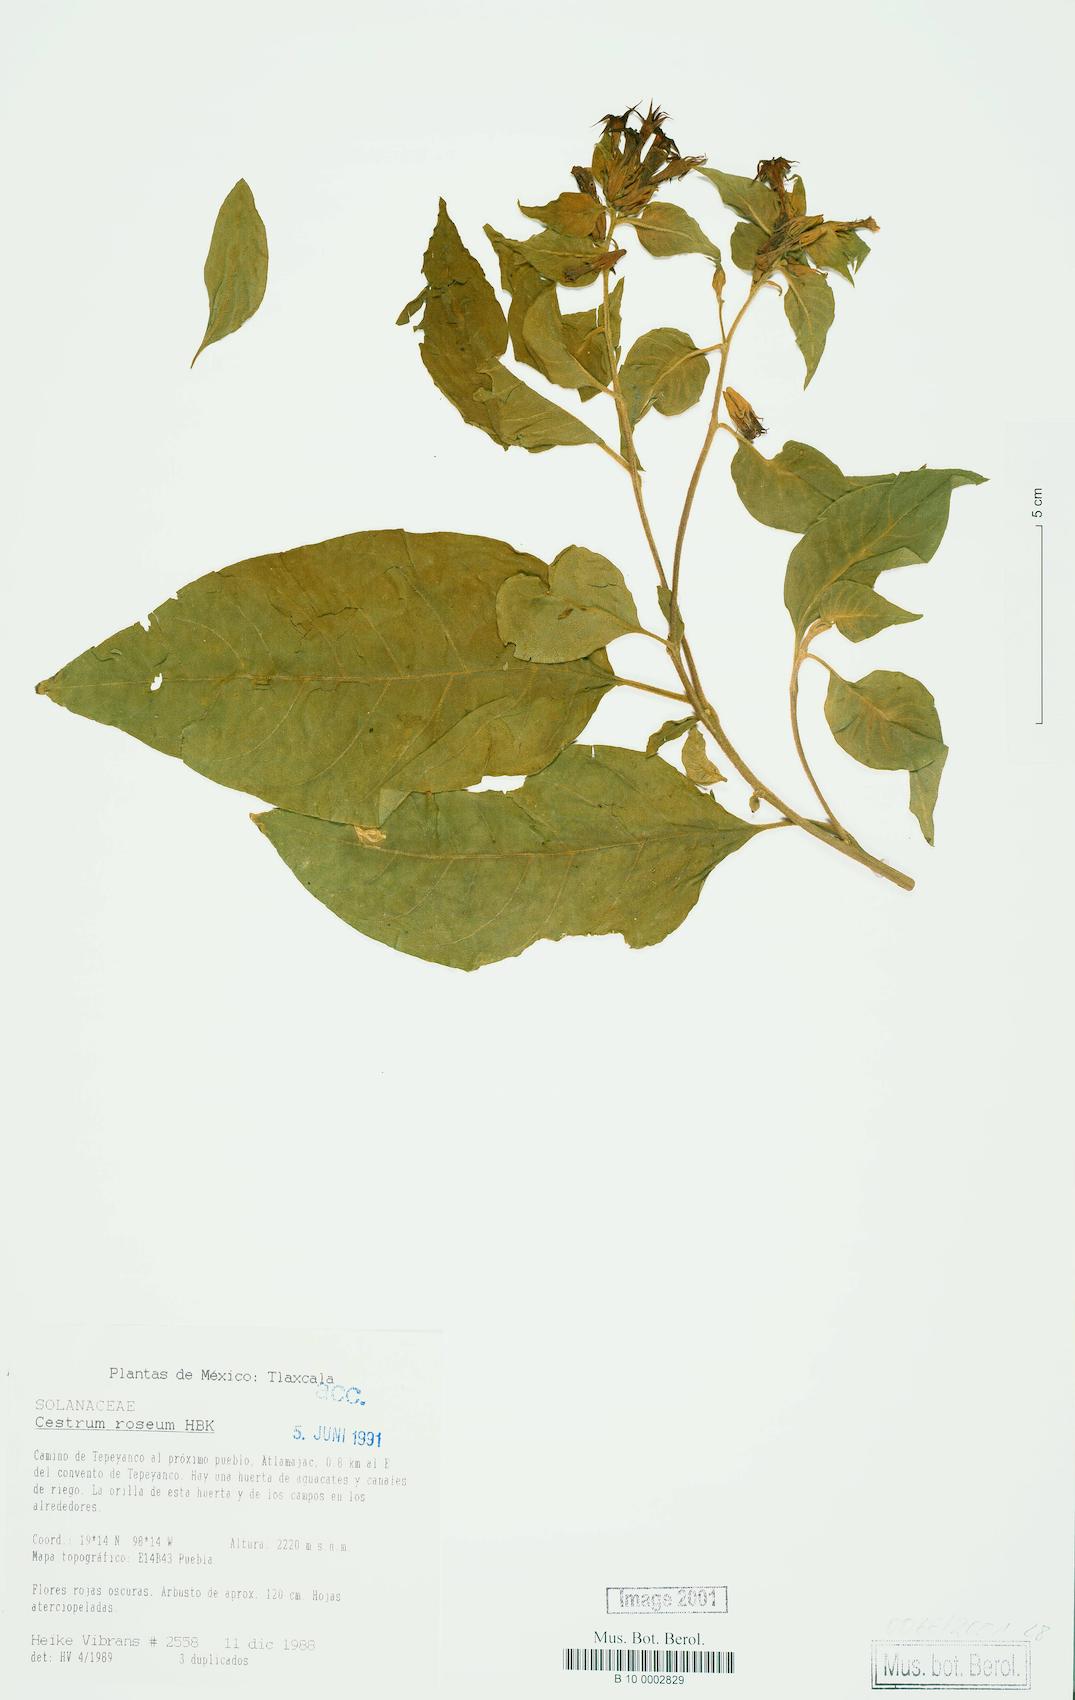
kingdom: Plantae
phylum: Tracheophyta
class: Magnoliopsida
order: Solanales
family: Solanaceae
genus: Cestrum
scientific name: Cestrum roseum
